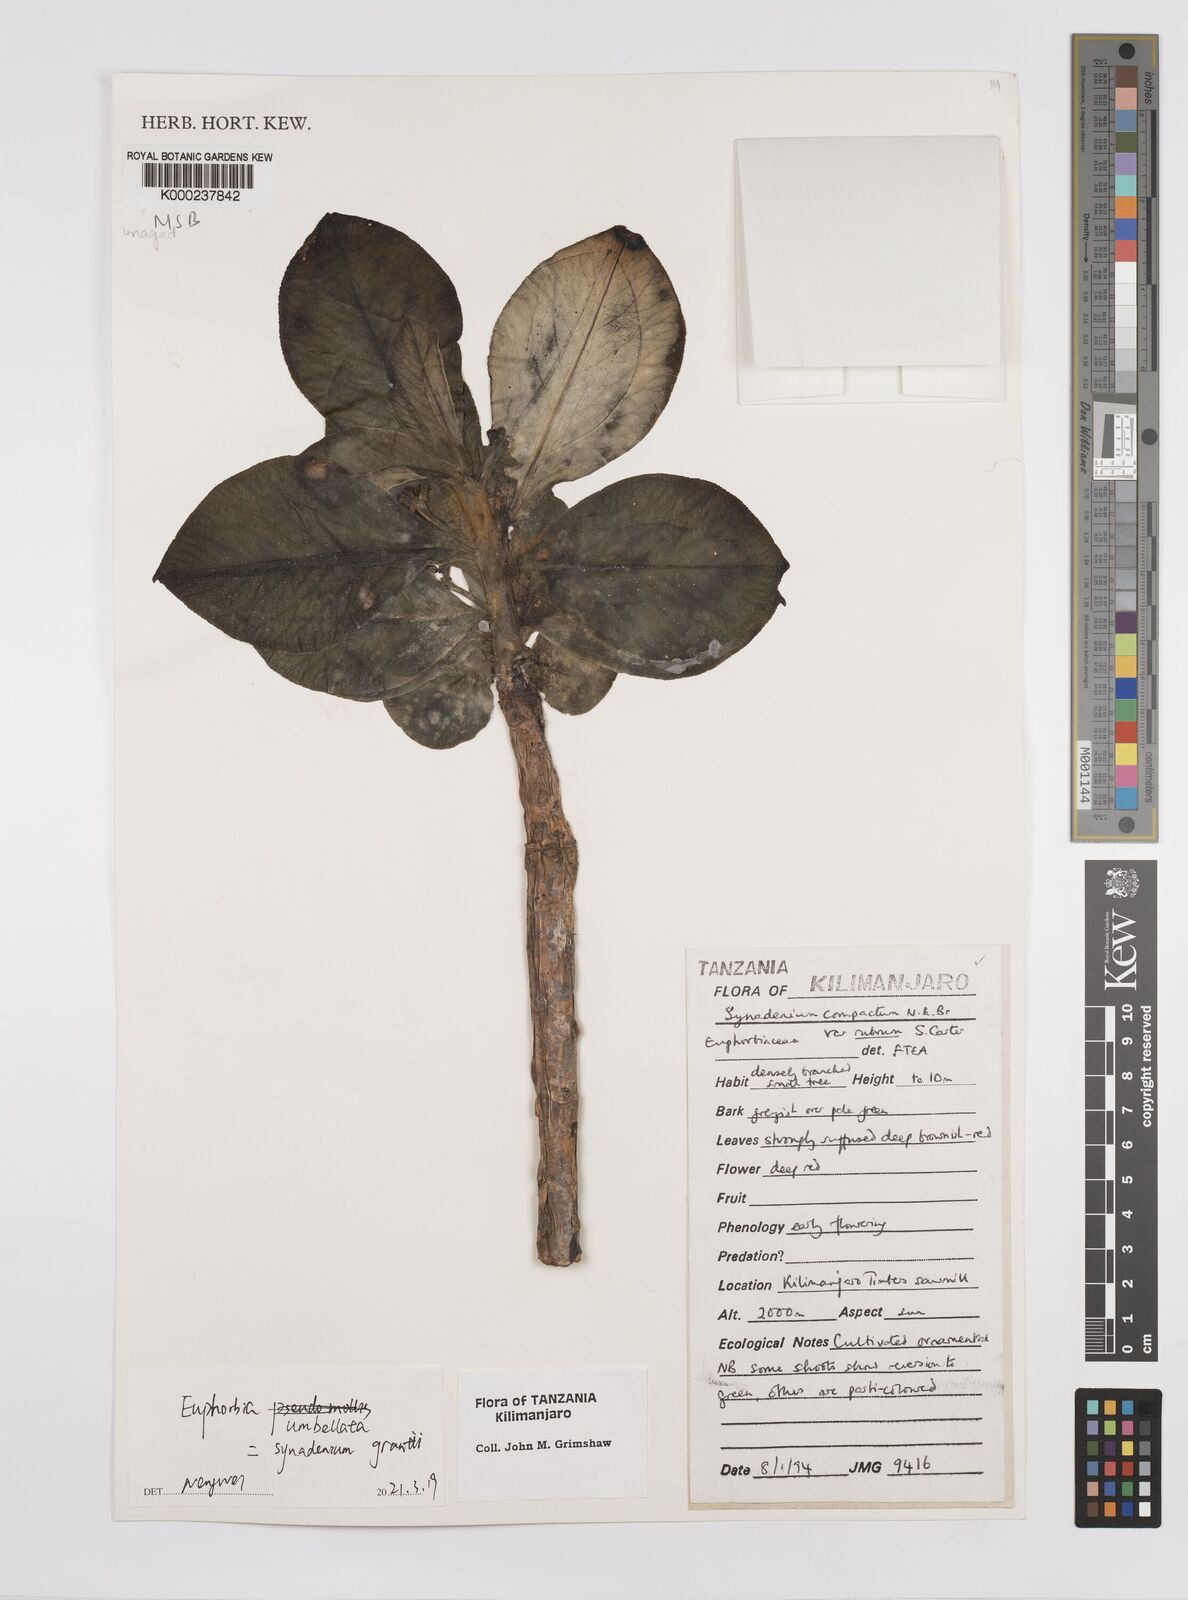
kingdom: Plantae
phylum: Tracheophyta
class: Magnoliopsida
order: Malpighiales
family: Euphorbiaceae
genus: Euphorbia
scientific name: Euphorbia bicompacta
